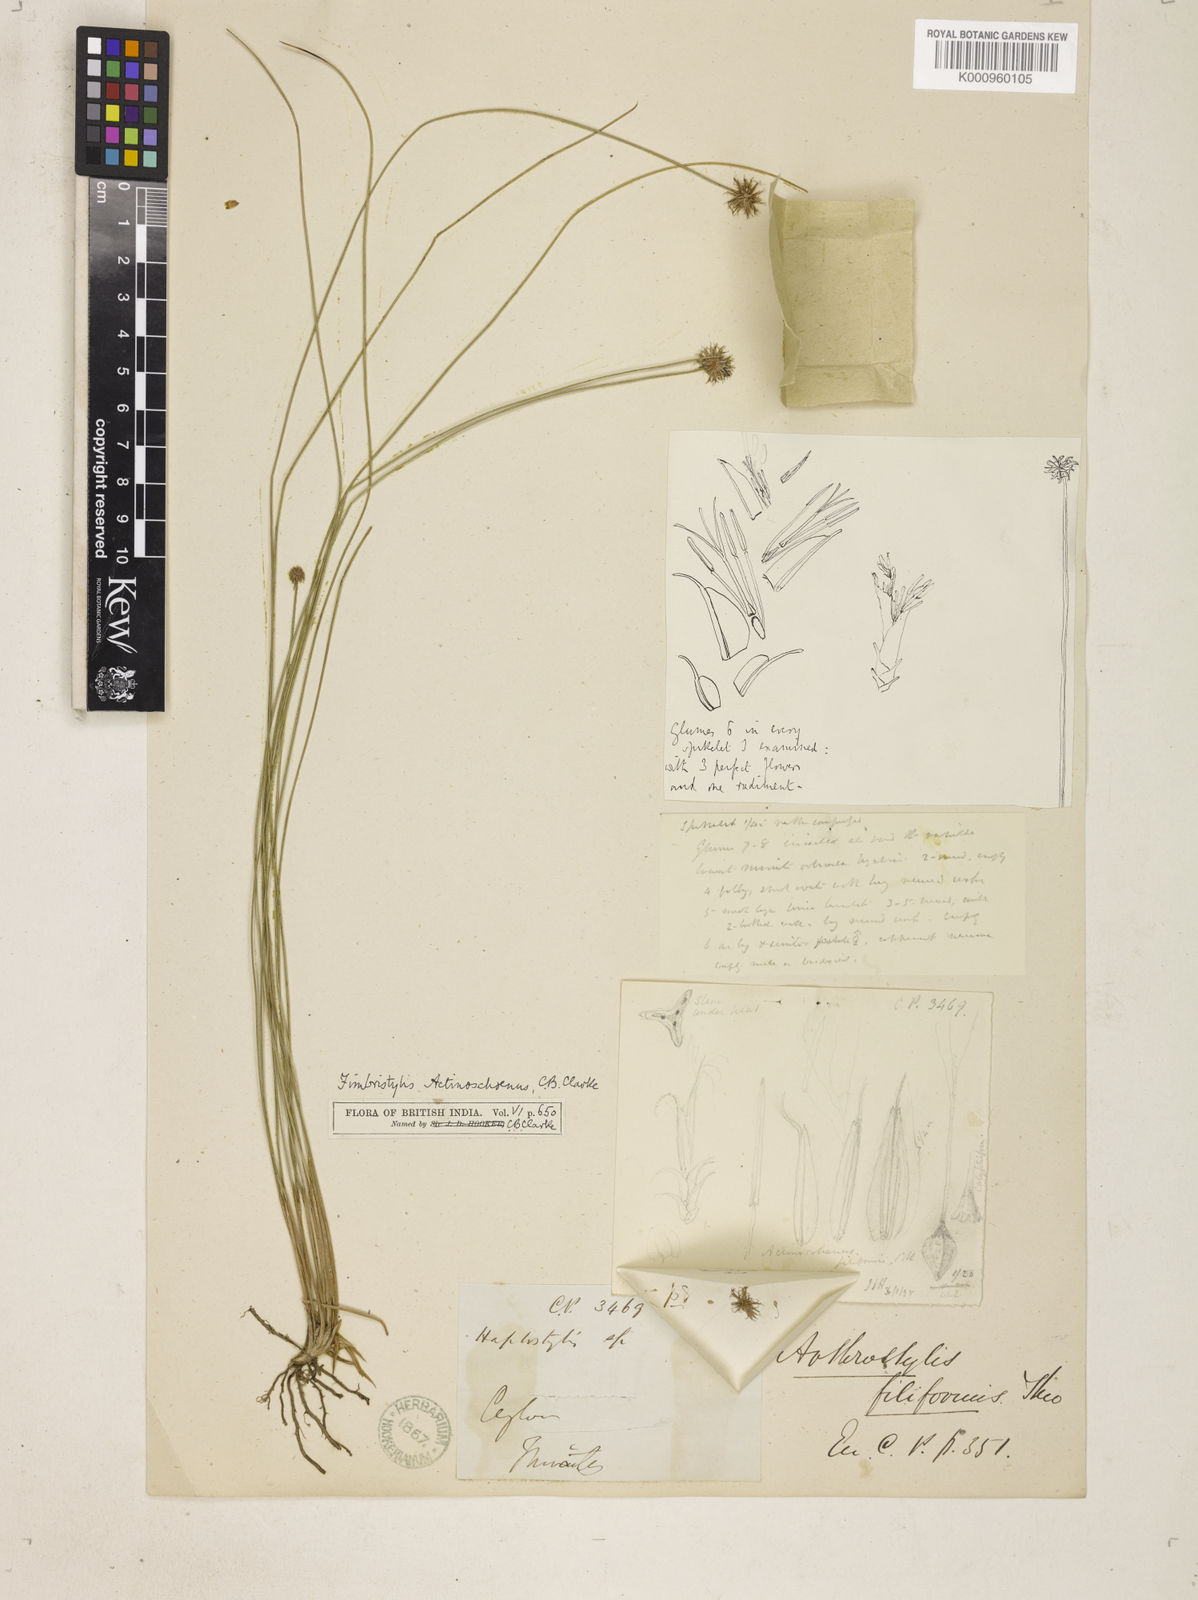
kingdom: Plantae
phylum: Tracheophyta
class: Liliopsida
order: Poales
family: Cyperaceae
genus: Actinoschoenus
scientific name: Actinoschoenus aphyllus
